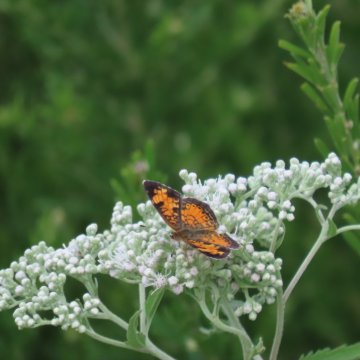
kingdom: Animalia
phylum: Arthropoda
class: Insecta
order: Lepidoptera
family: Nymphalidae
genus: Phyciodes
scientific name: Phyciodes tharos
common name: Pearl Crescent
